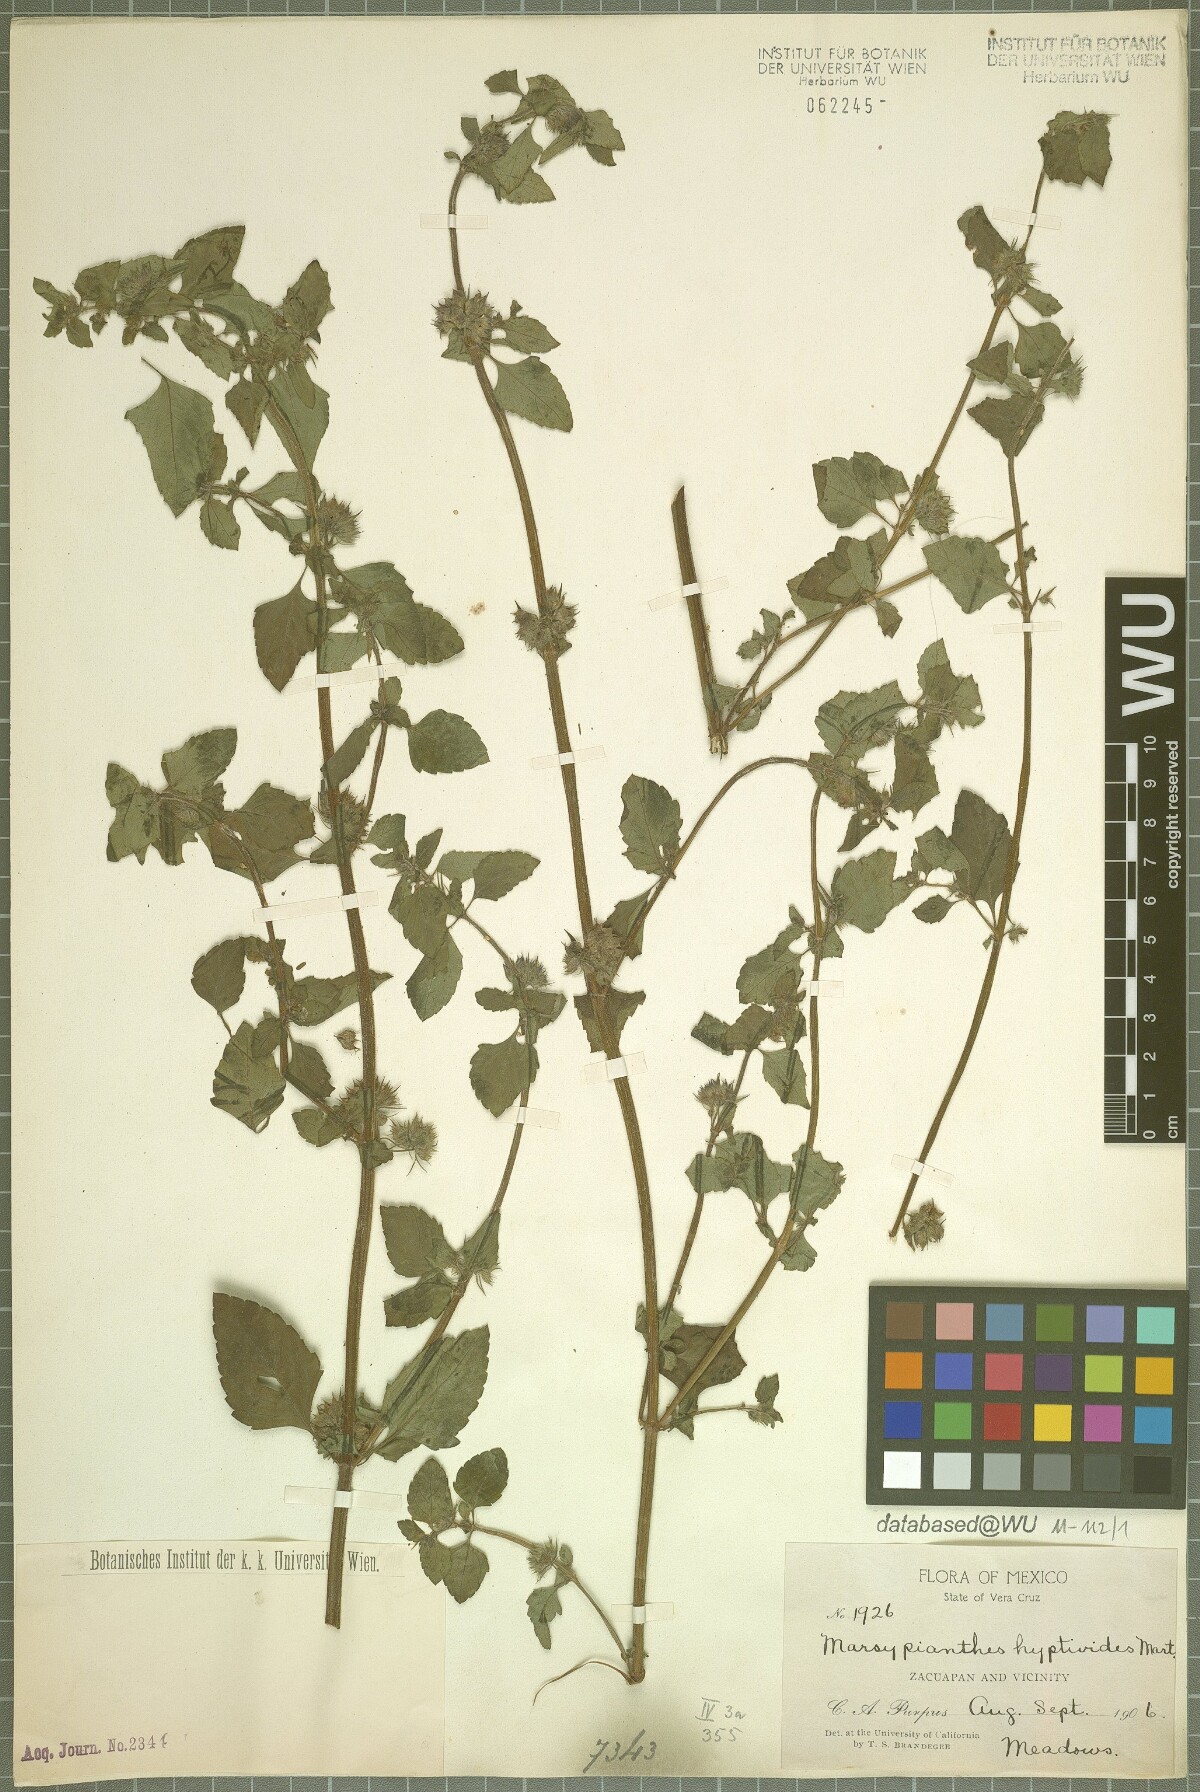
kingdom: Plantae
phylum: Tracheophyta
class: Magnoliopsida
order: Lamiales
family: Lamiaceae
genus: Marsypianthes
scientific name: Marsypianthes chamaedrys
